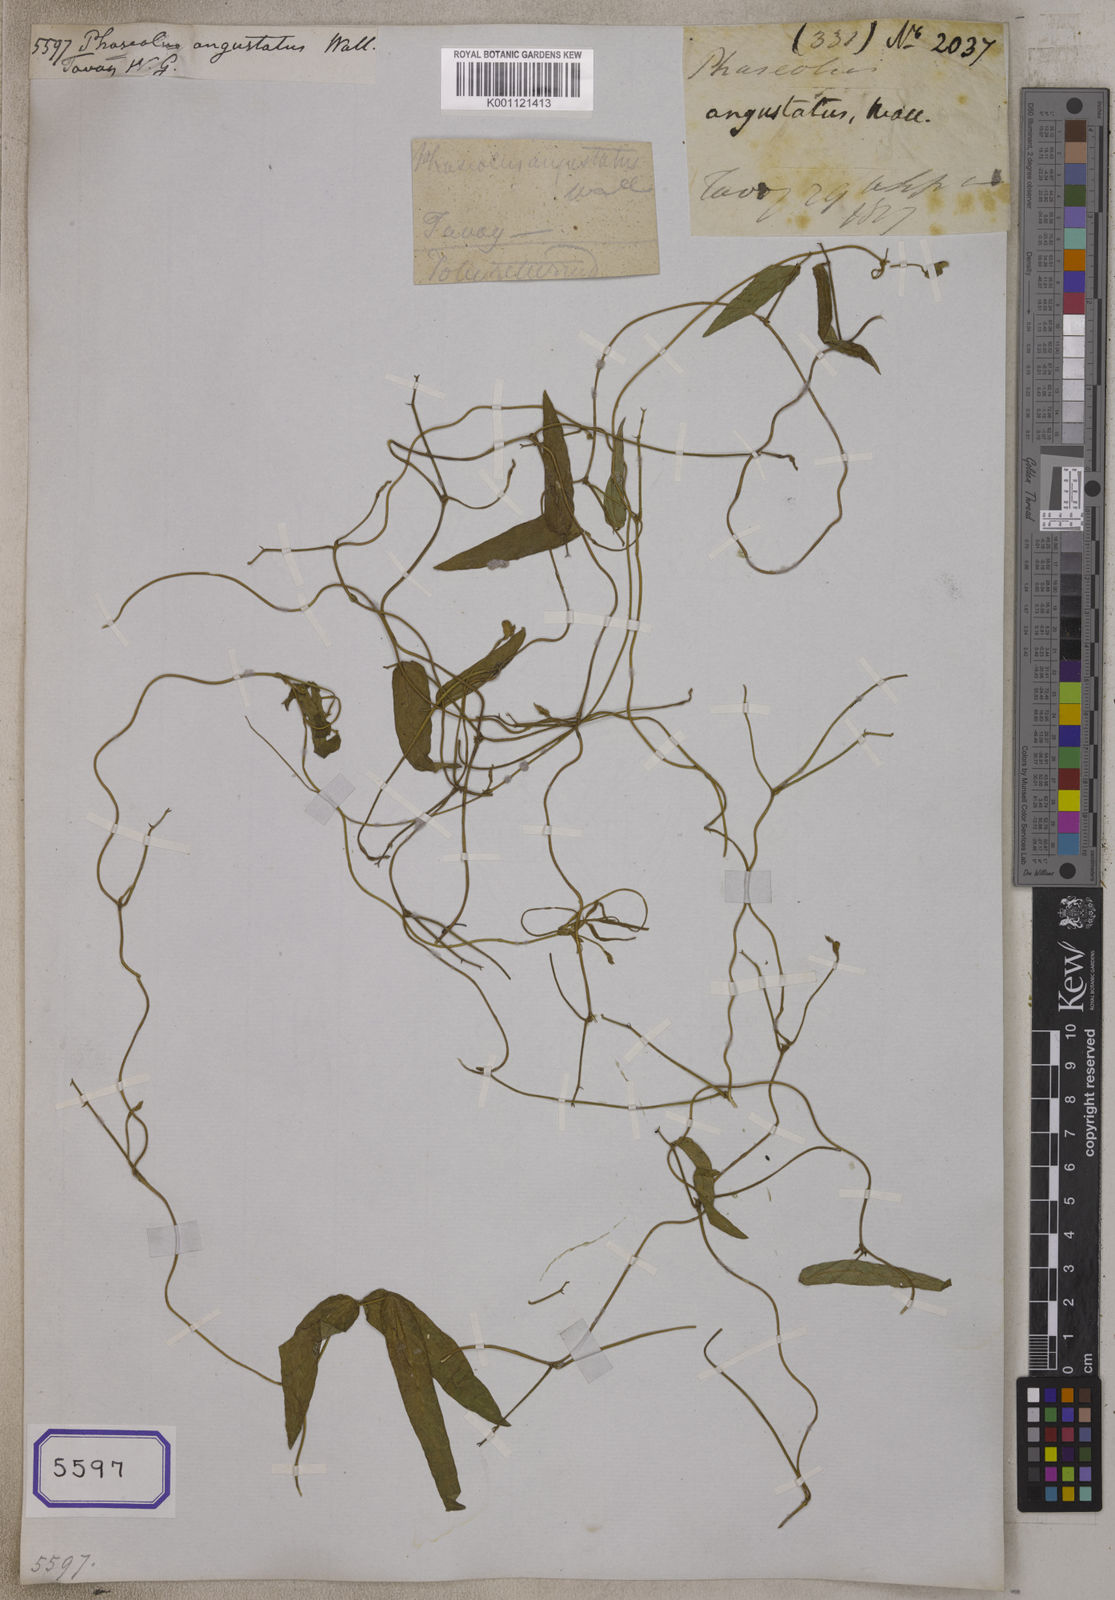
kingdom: Plantae
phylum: Tracheophyta
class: Magnoliopsida
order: Fabales
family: Fabaceae
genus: Phaseolus
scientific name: Phaseolus angustatus
